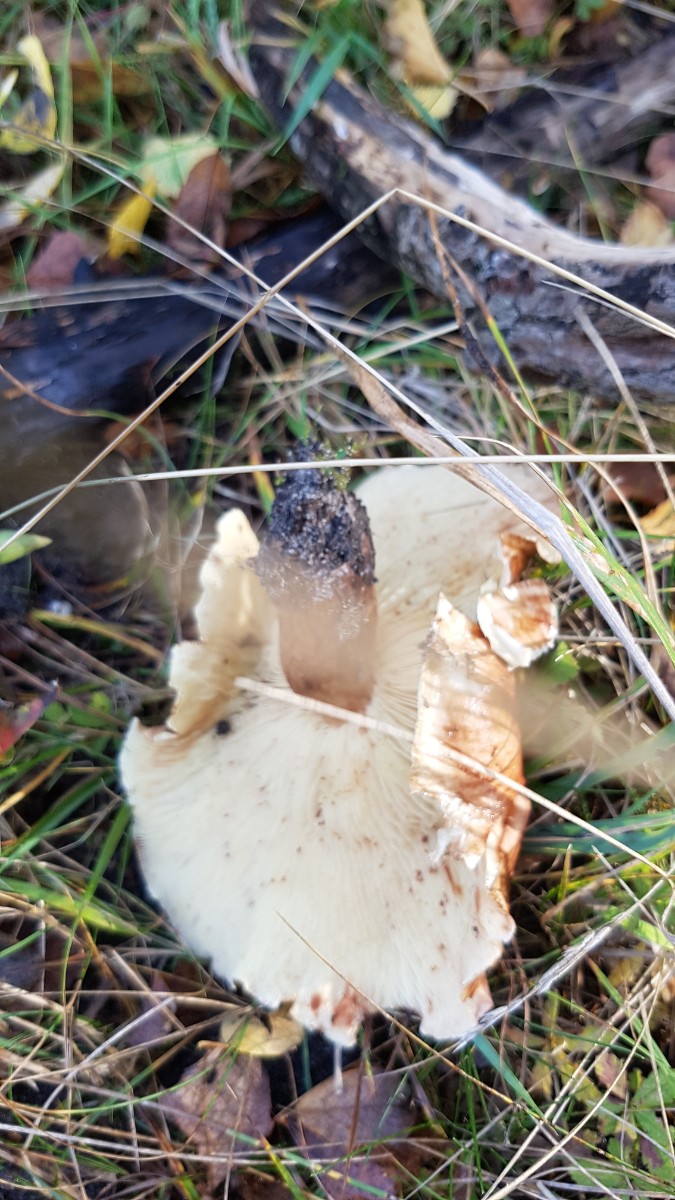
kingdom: Fungi
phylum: Basidiomycota
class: Agaricomycetes
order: Agaricales
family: Tricholomataceae
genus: Tricholoma
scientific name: Tricholoma fulvum
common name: birke-ridderhat
